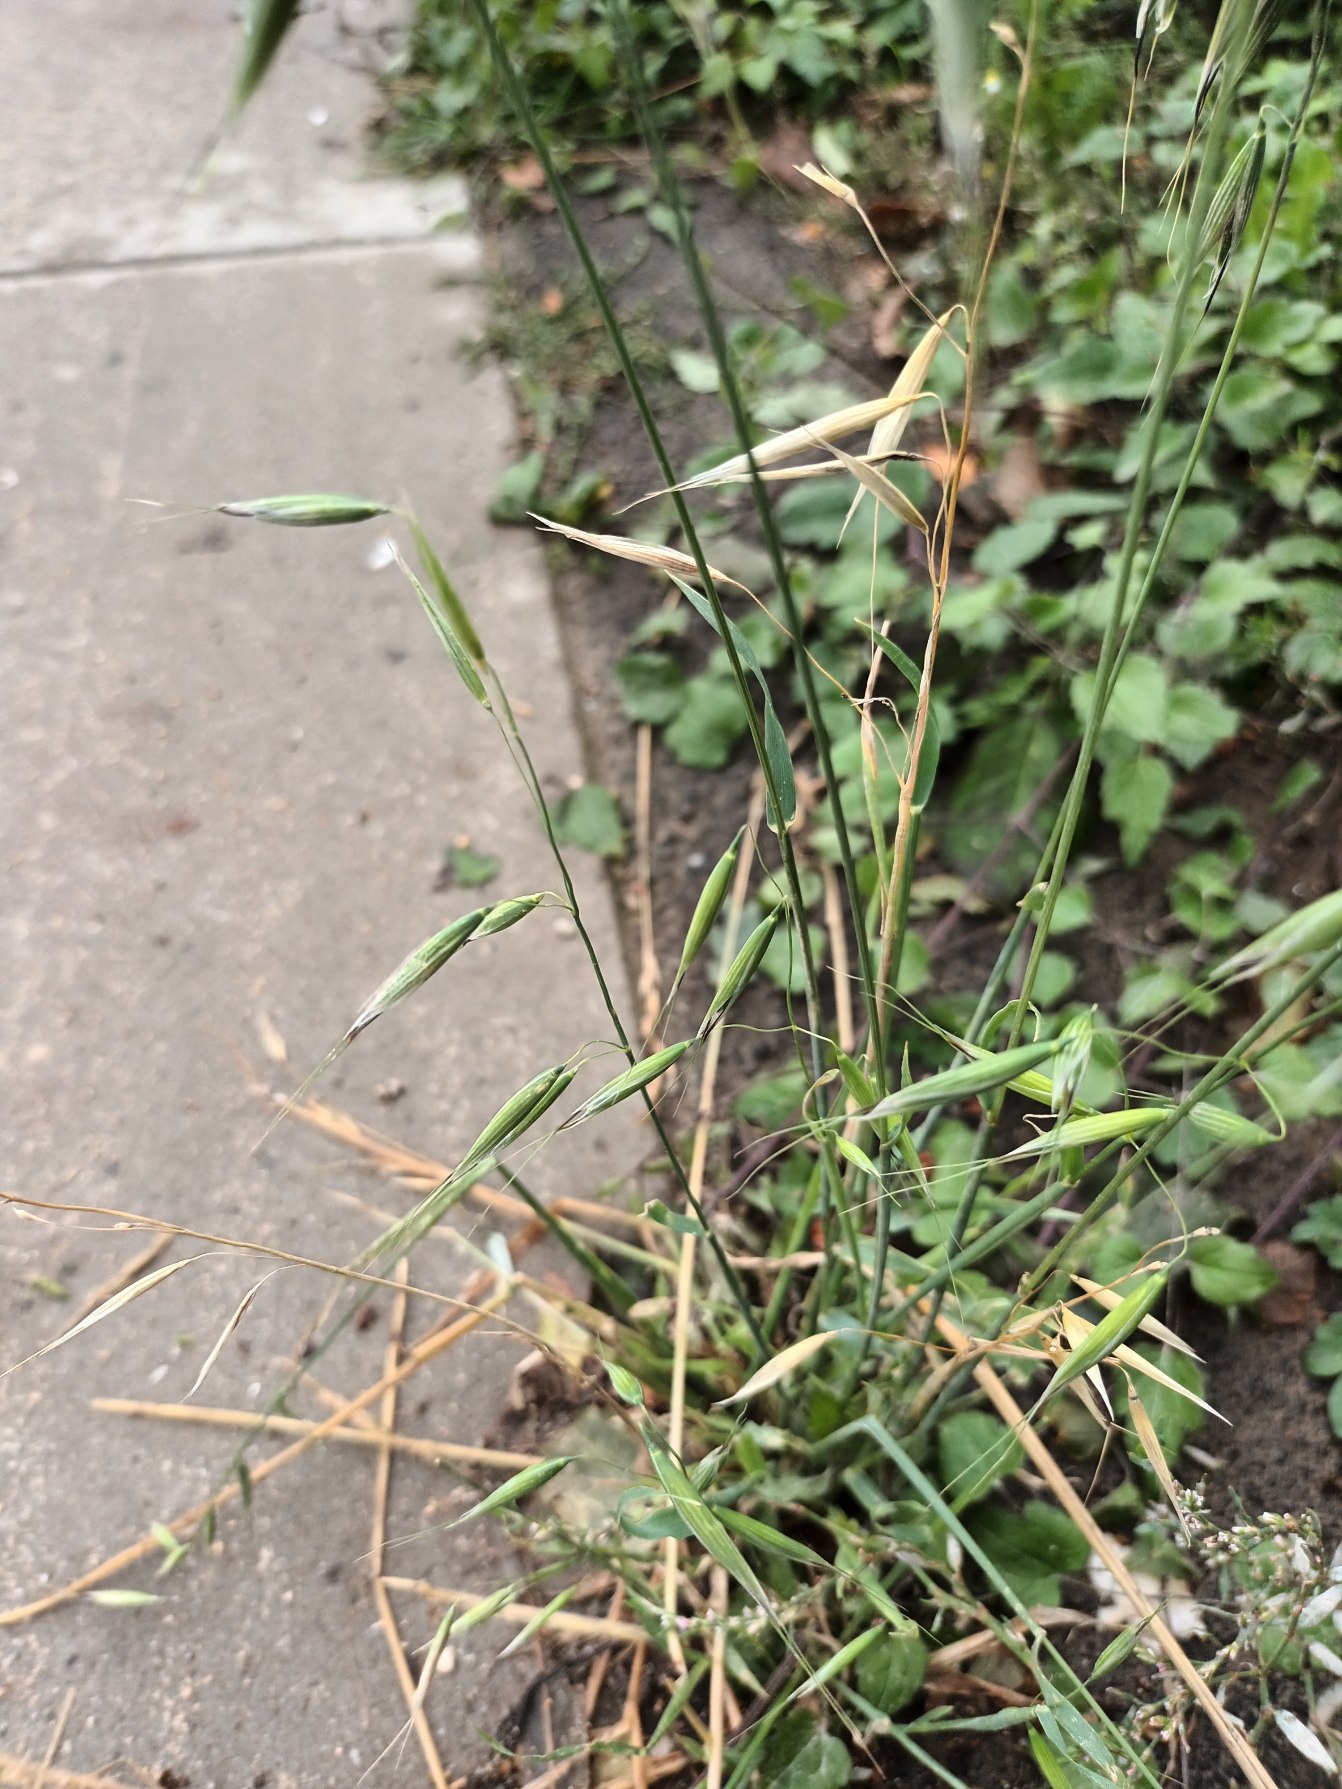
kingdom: Plantae
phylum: Tracheophyta
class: Liliopsida
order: Poales
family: Poaceae
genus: Avena
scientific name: Avena fatua
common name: Flyve-havre
